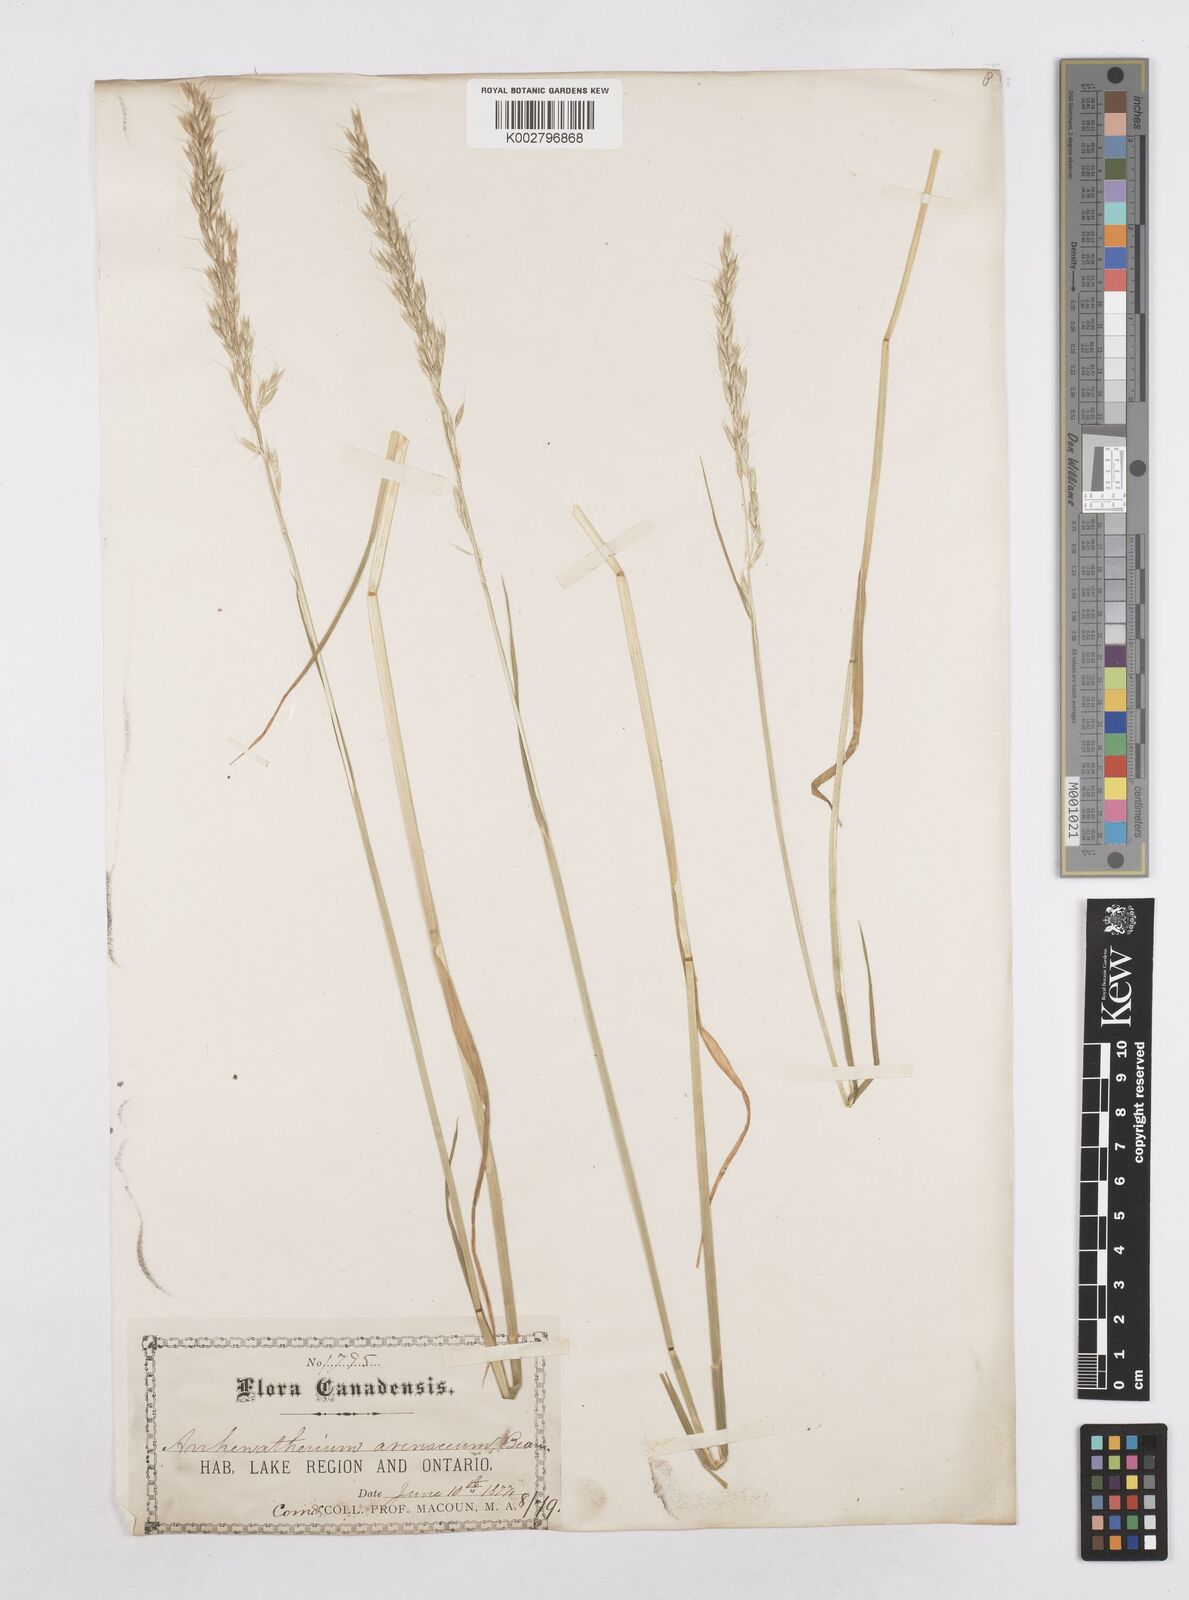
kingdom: Plantae
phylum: Tracheophyta
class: Liliopsida
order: Poales
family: Poaceae
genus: Arrhenatherum
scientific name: Arrhenatherum elatius
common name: Tall oatgrass
